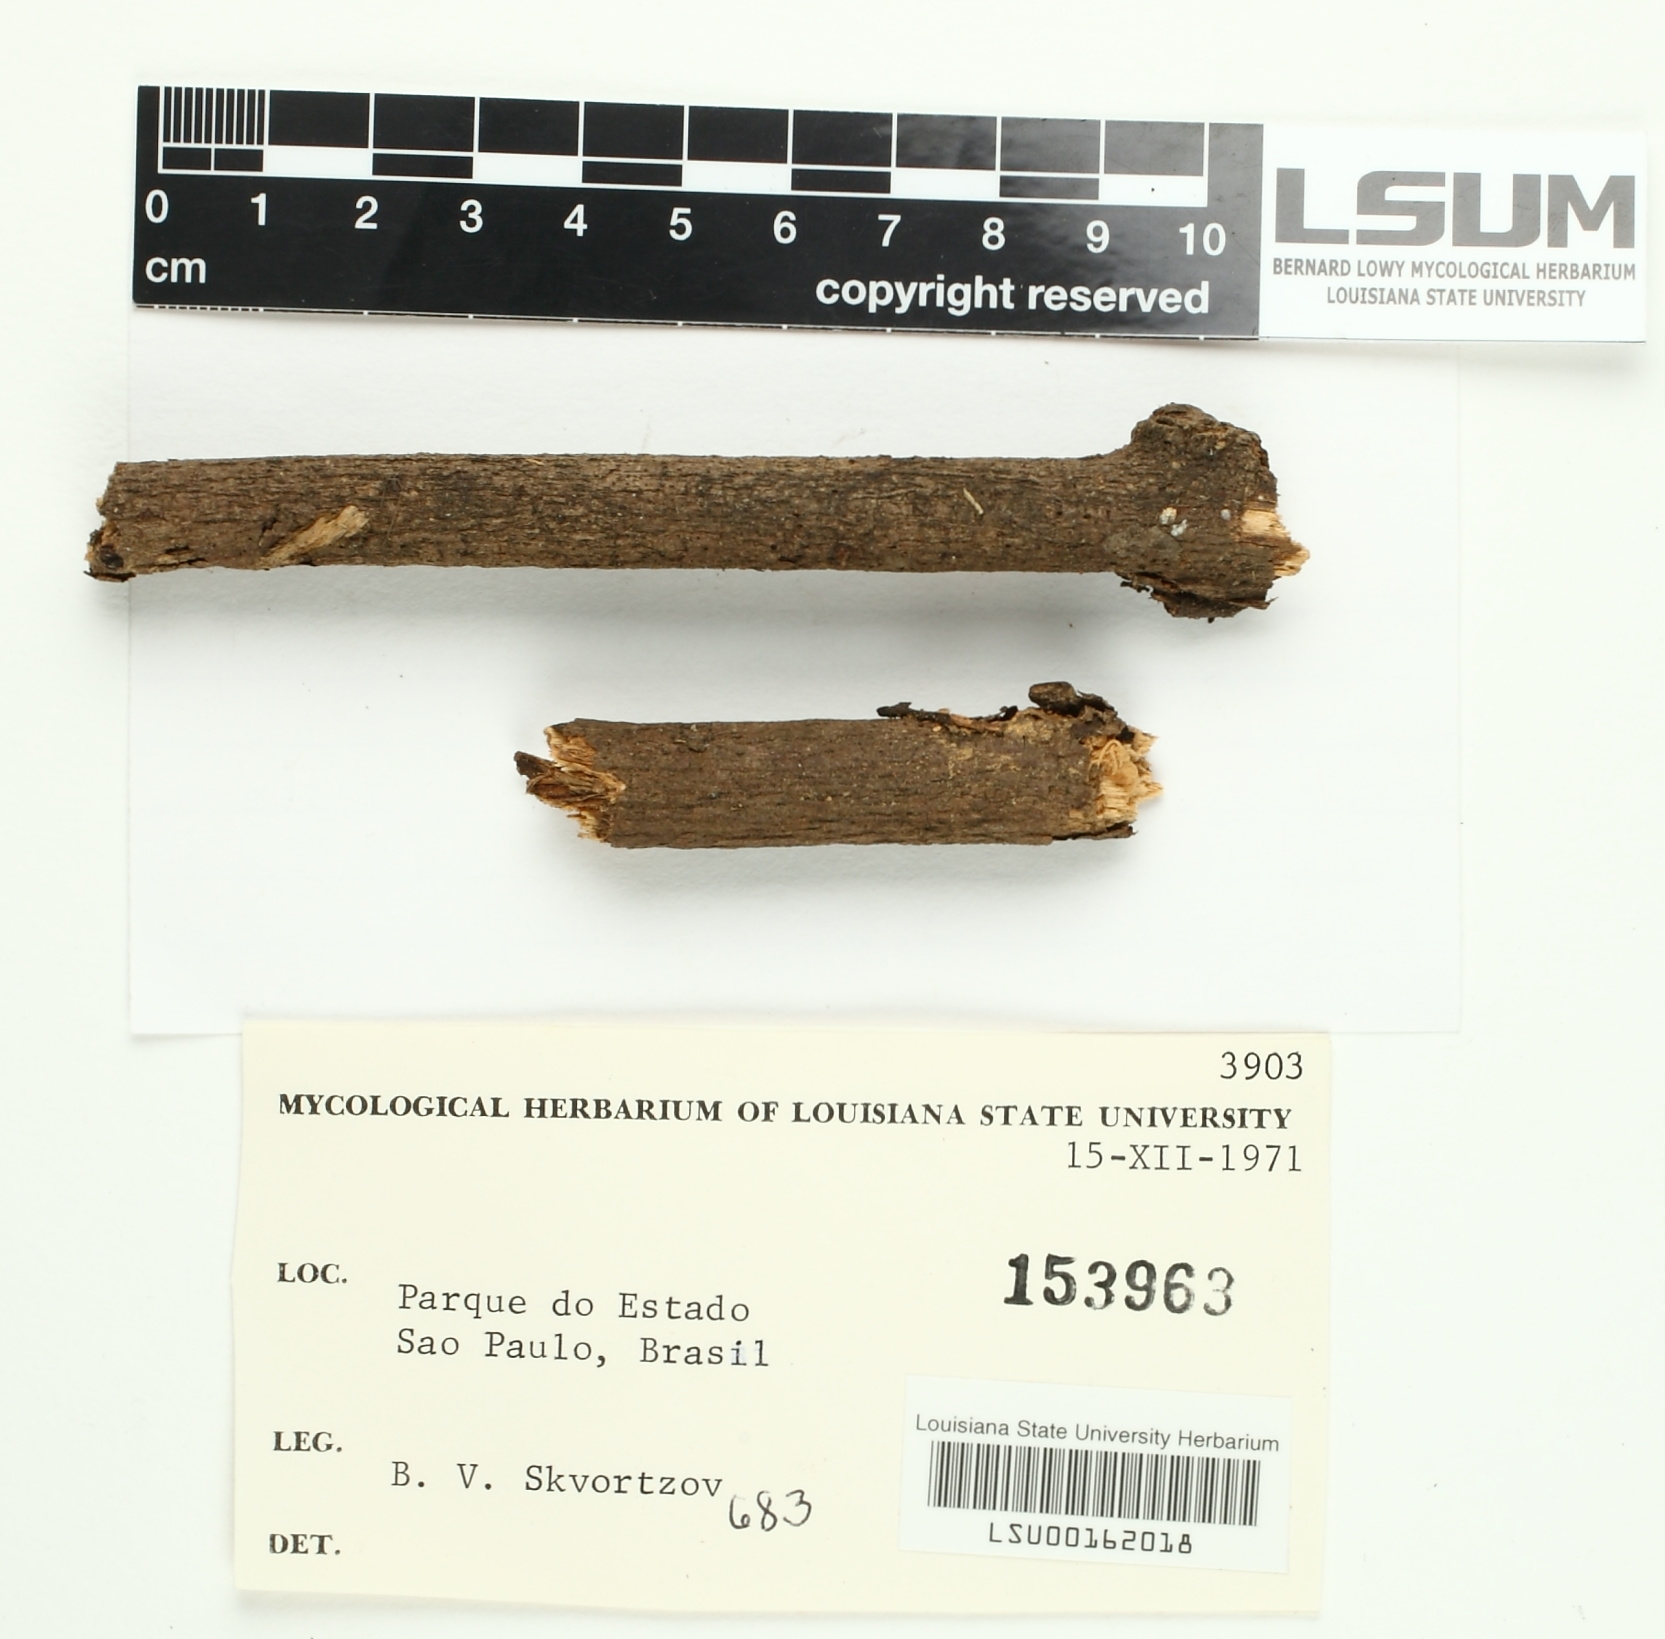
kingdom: Fungi
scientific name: Fungi
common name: Fungi
